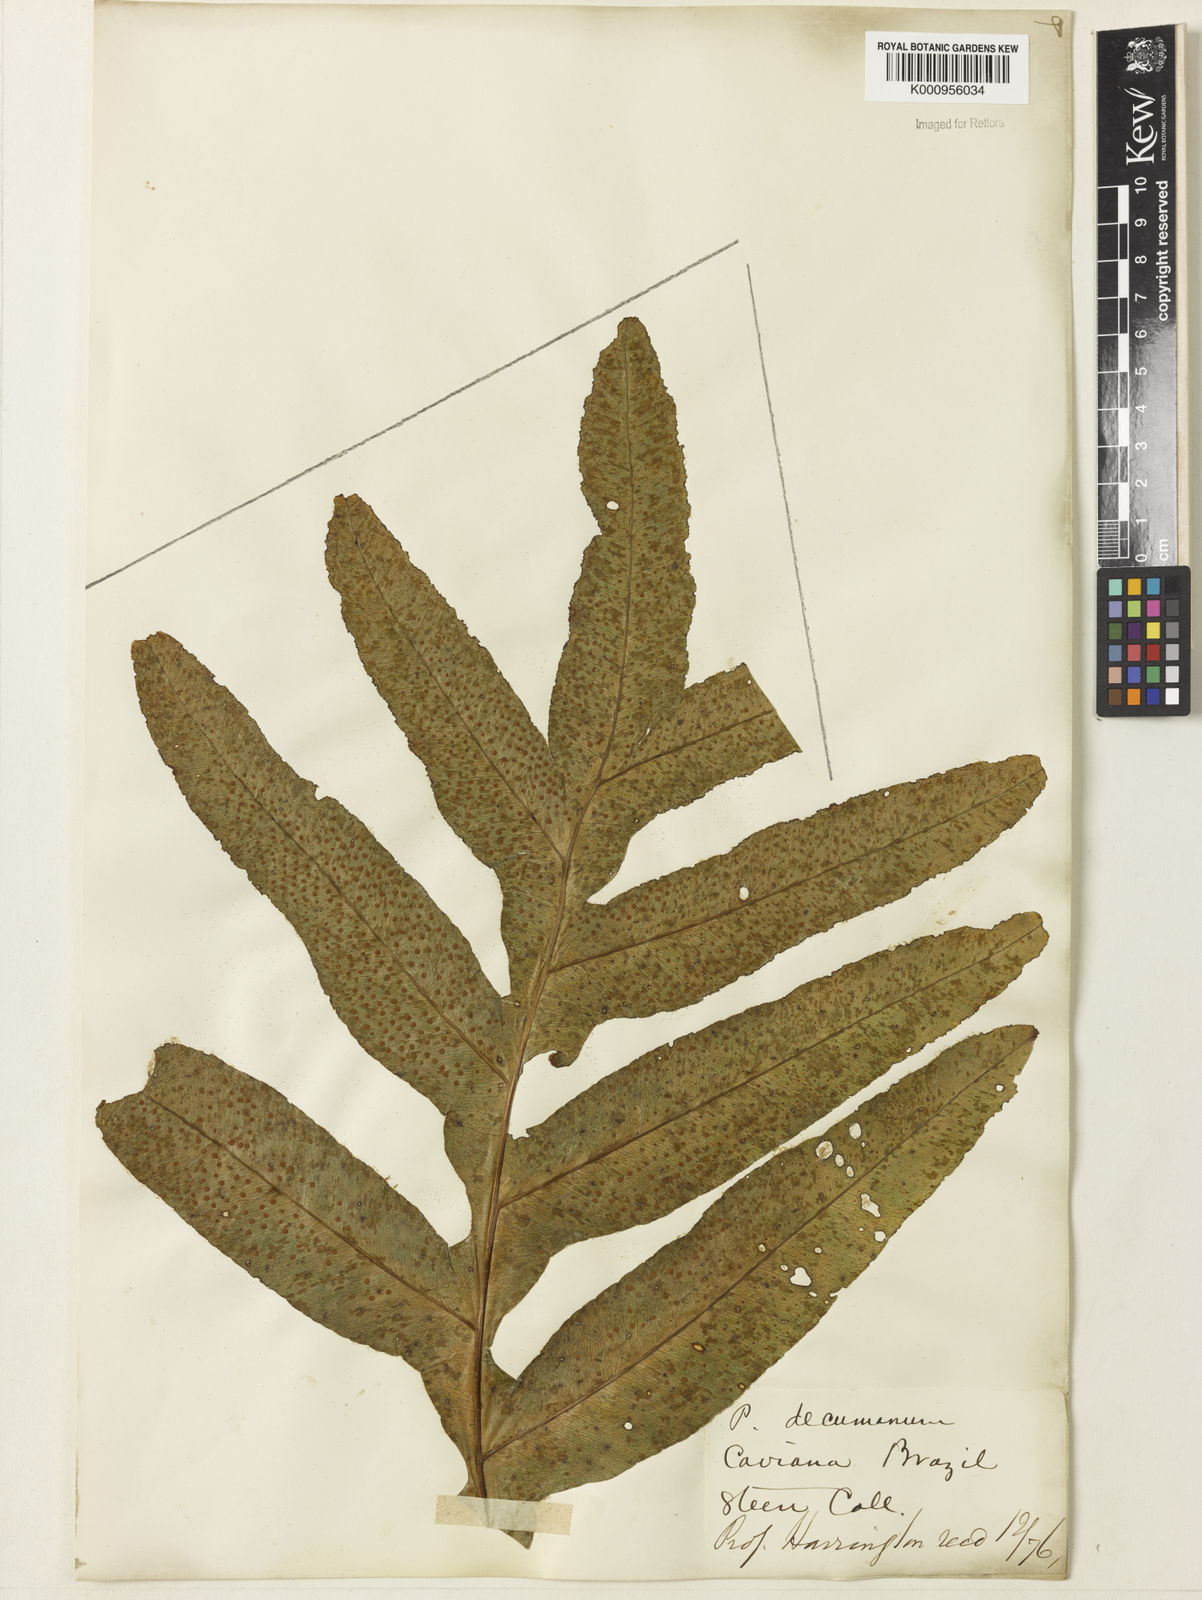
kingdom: Plantae
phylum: Tracheophyta
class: Polypodiopsida
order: Polypodiales
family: Polypodiaceae
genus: Phlebodium
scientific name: Phlebodium decumanum
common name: Golden polypod
